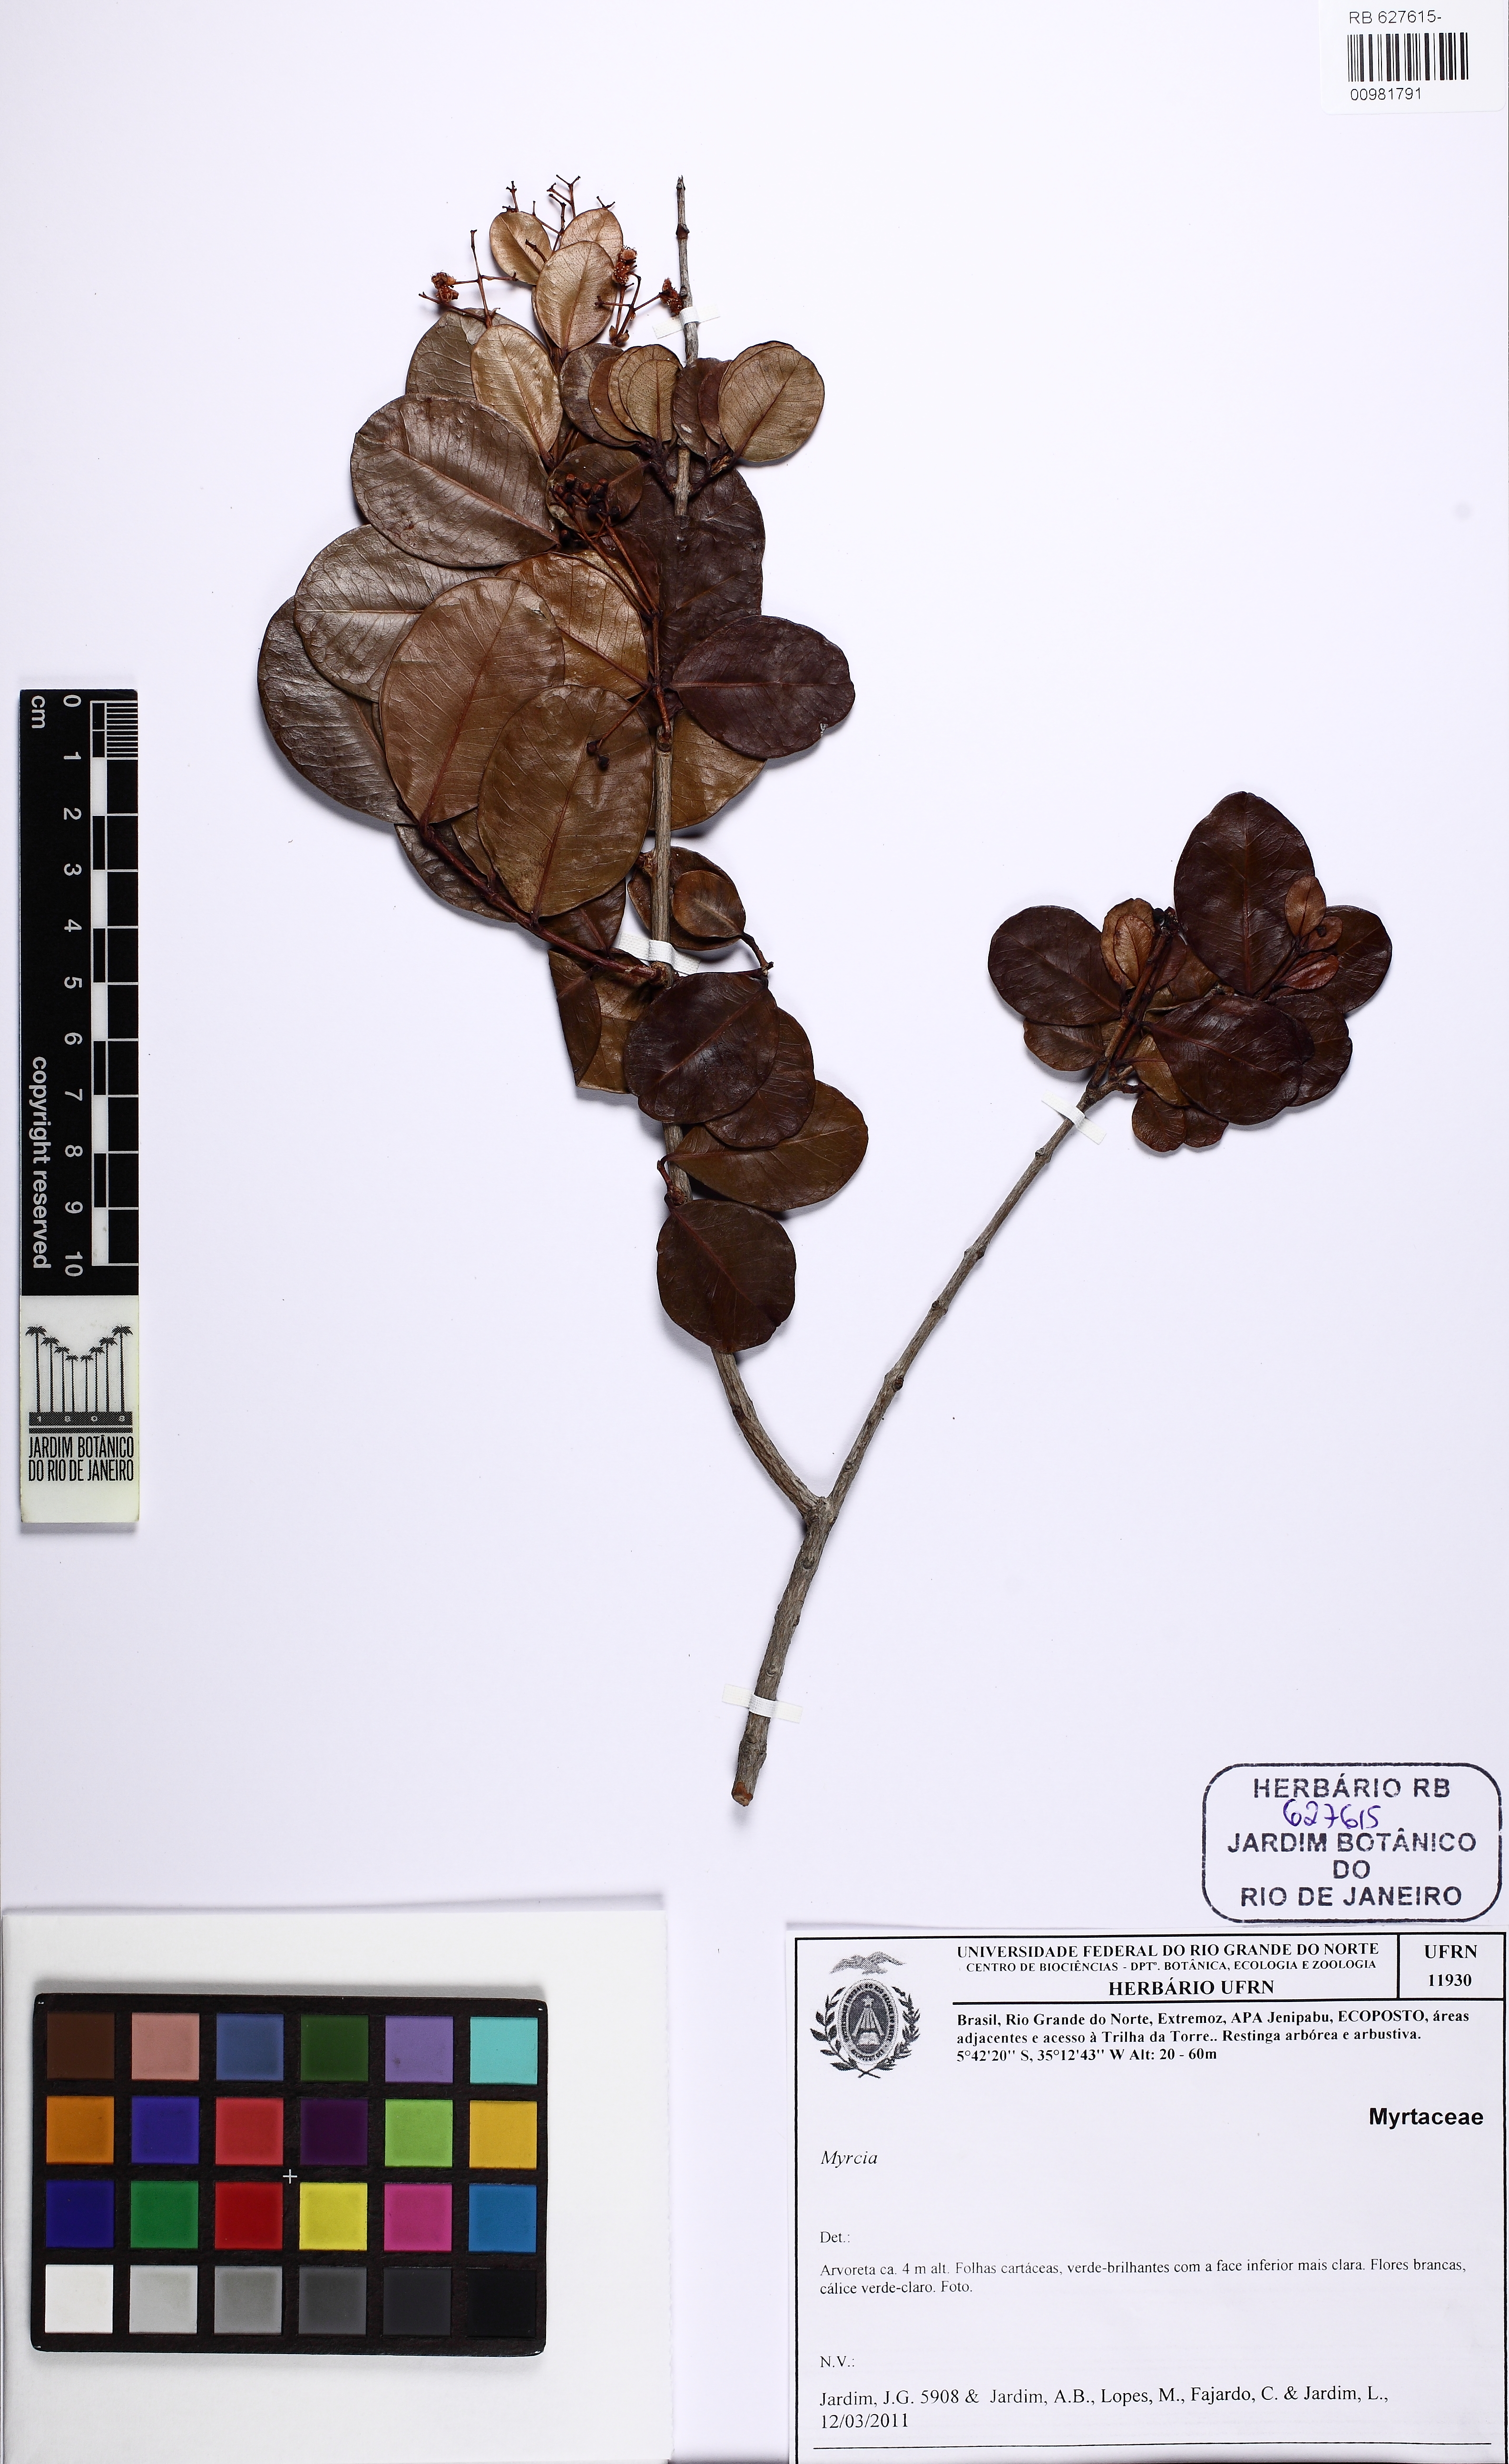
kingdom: Plantae
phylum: Tracheophyta
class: Magnoliopsida
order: Myrtales
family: Myrtaceae
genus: Myrcia
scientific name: Myrcia guianensis
